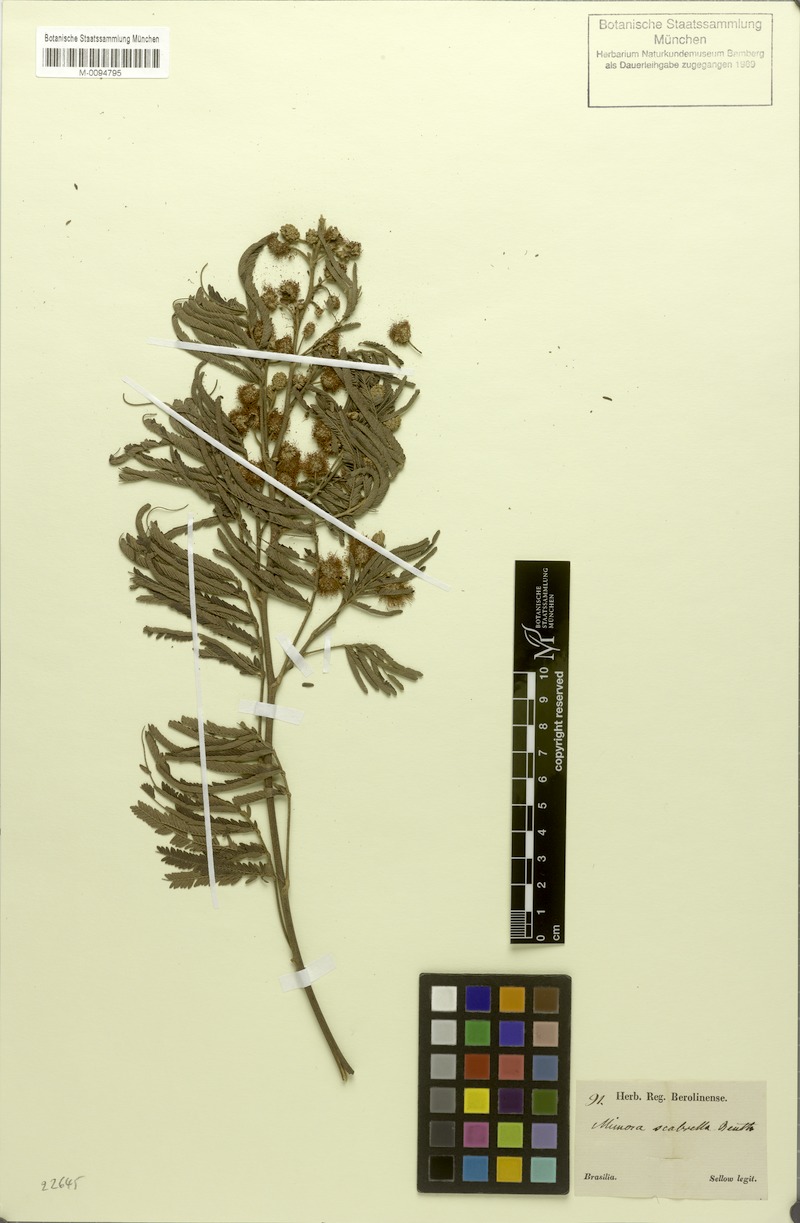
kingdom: Plantae
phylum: Tracheophyta
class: Magnoliopsida
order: Fabales
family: Fabaceae
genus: Mimosa
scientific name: Mimosa scabrella
